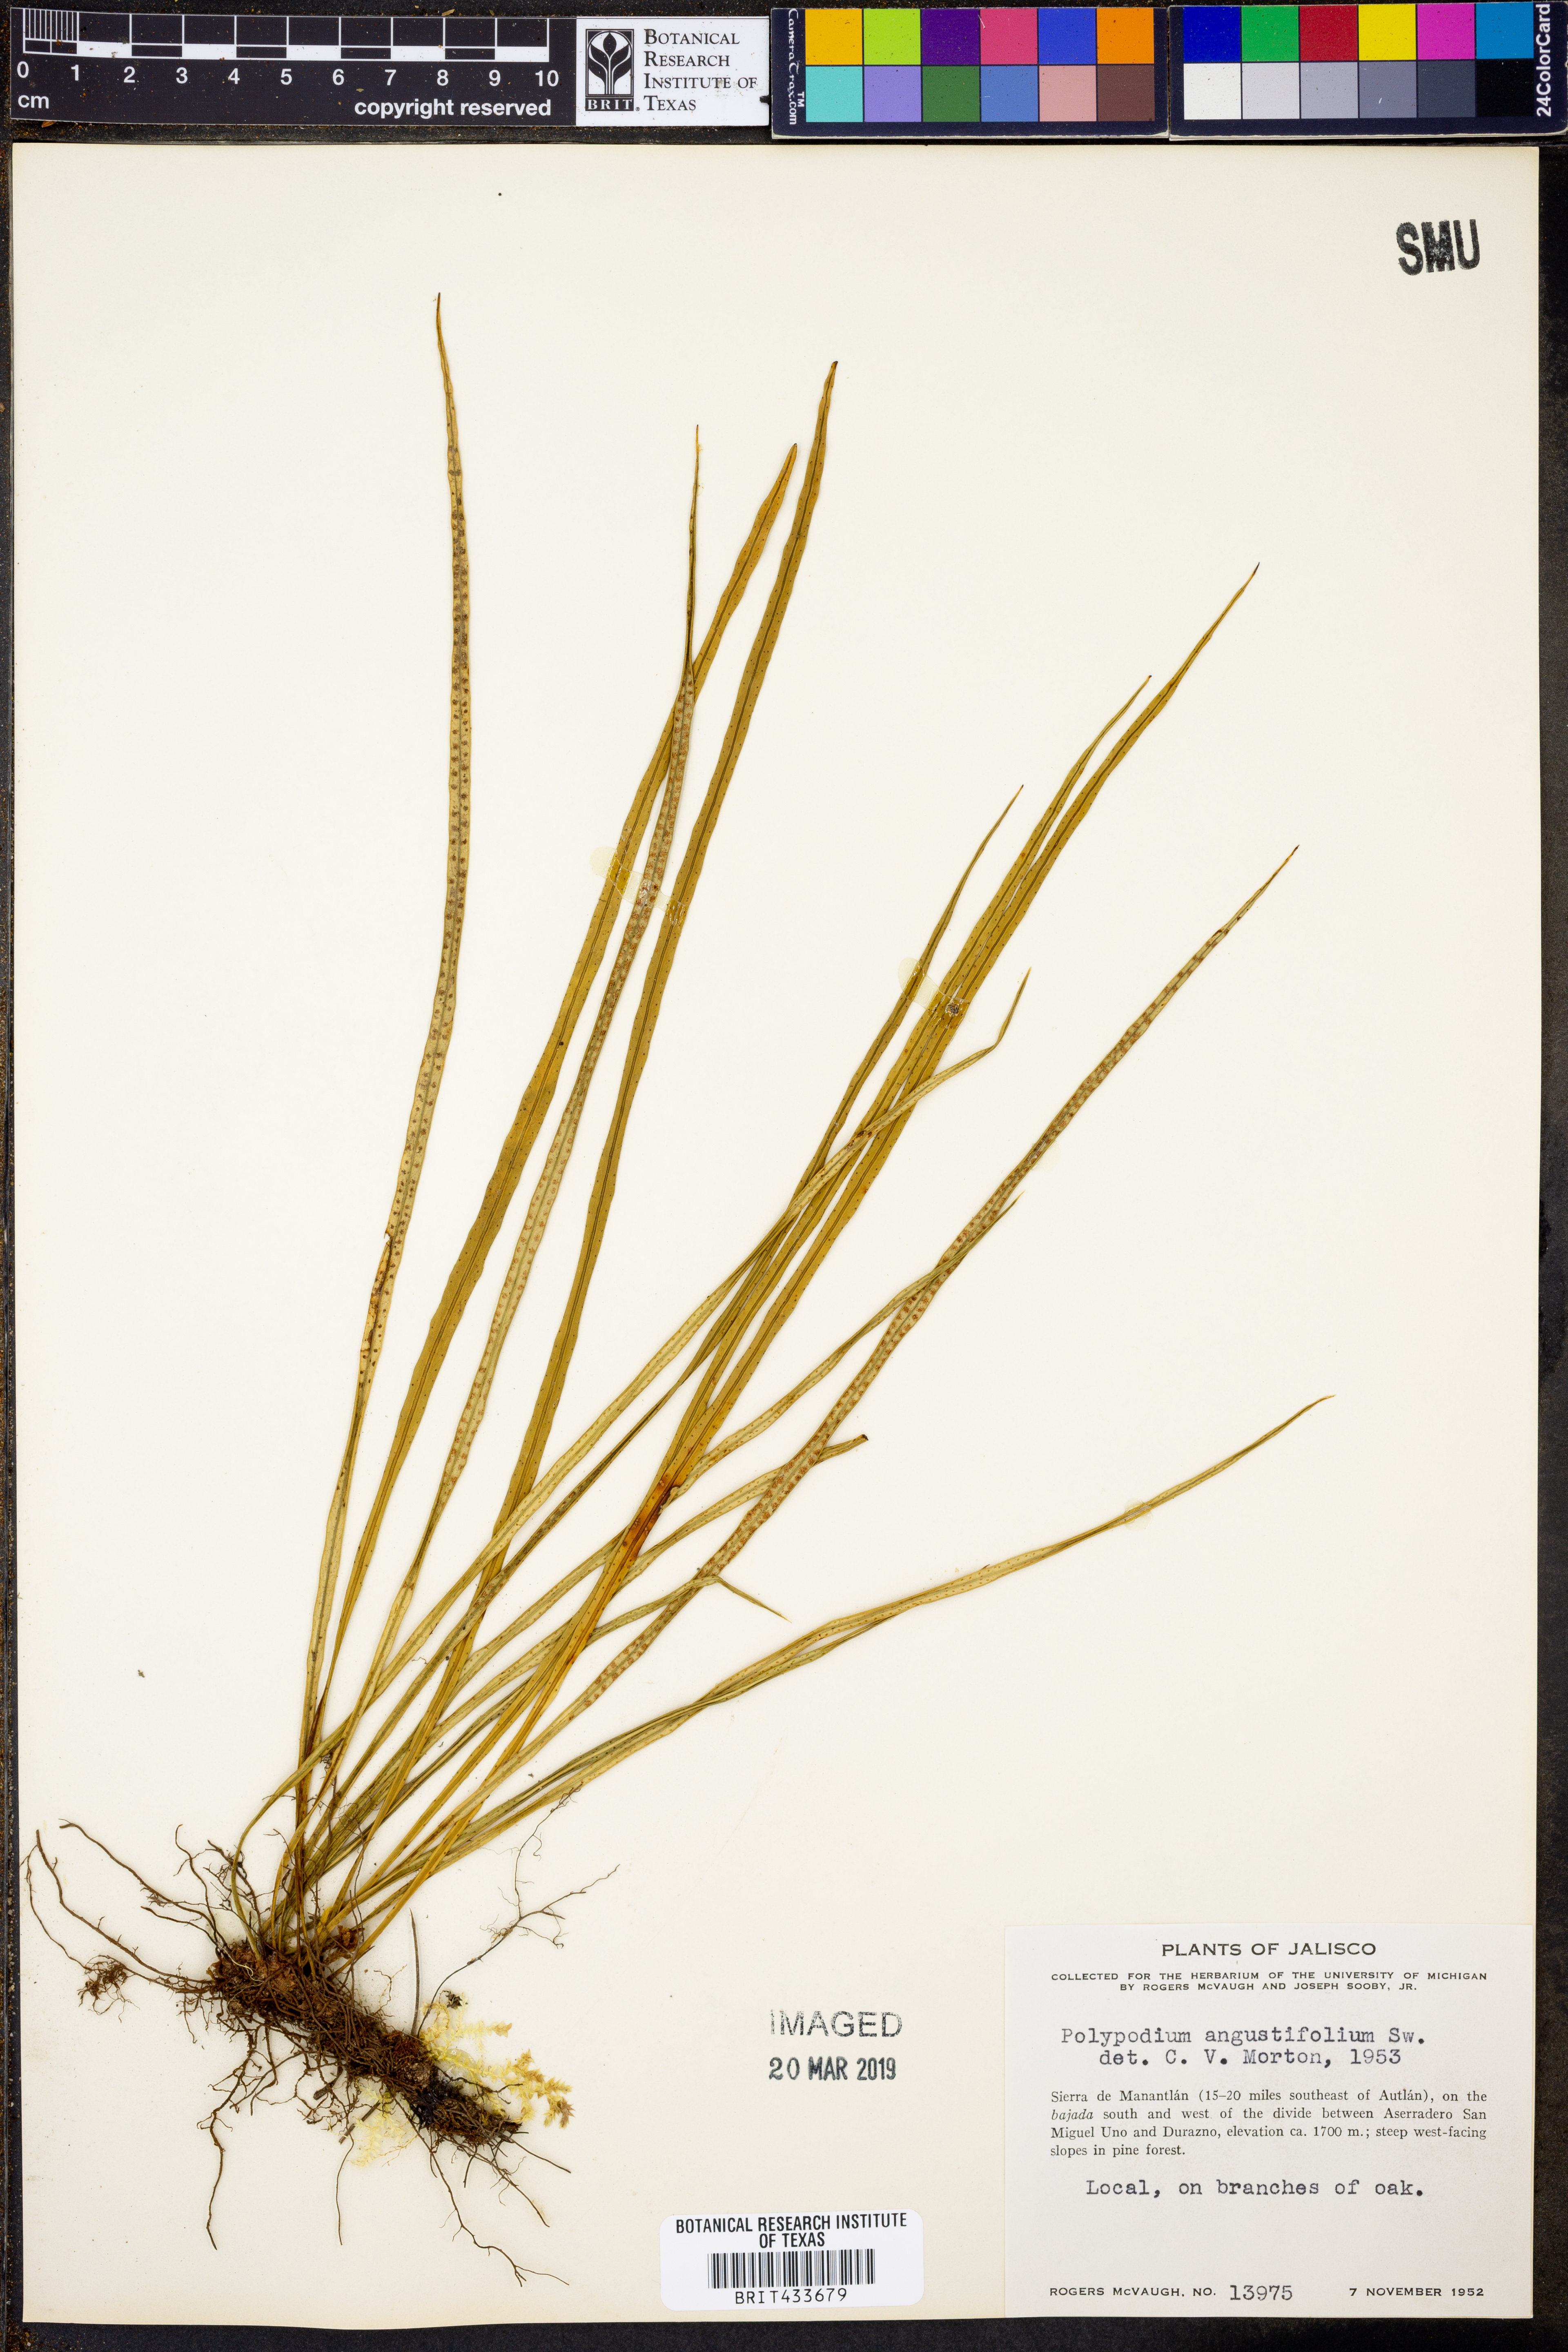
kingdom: Plantae
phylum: Tracheophyta
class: Polypodiopsida
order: Polypodiales
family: Polypodiaceae
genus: Campyloneurum
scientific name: Campyloneurum angustifolium
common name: Narrow-leaf strap fern
